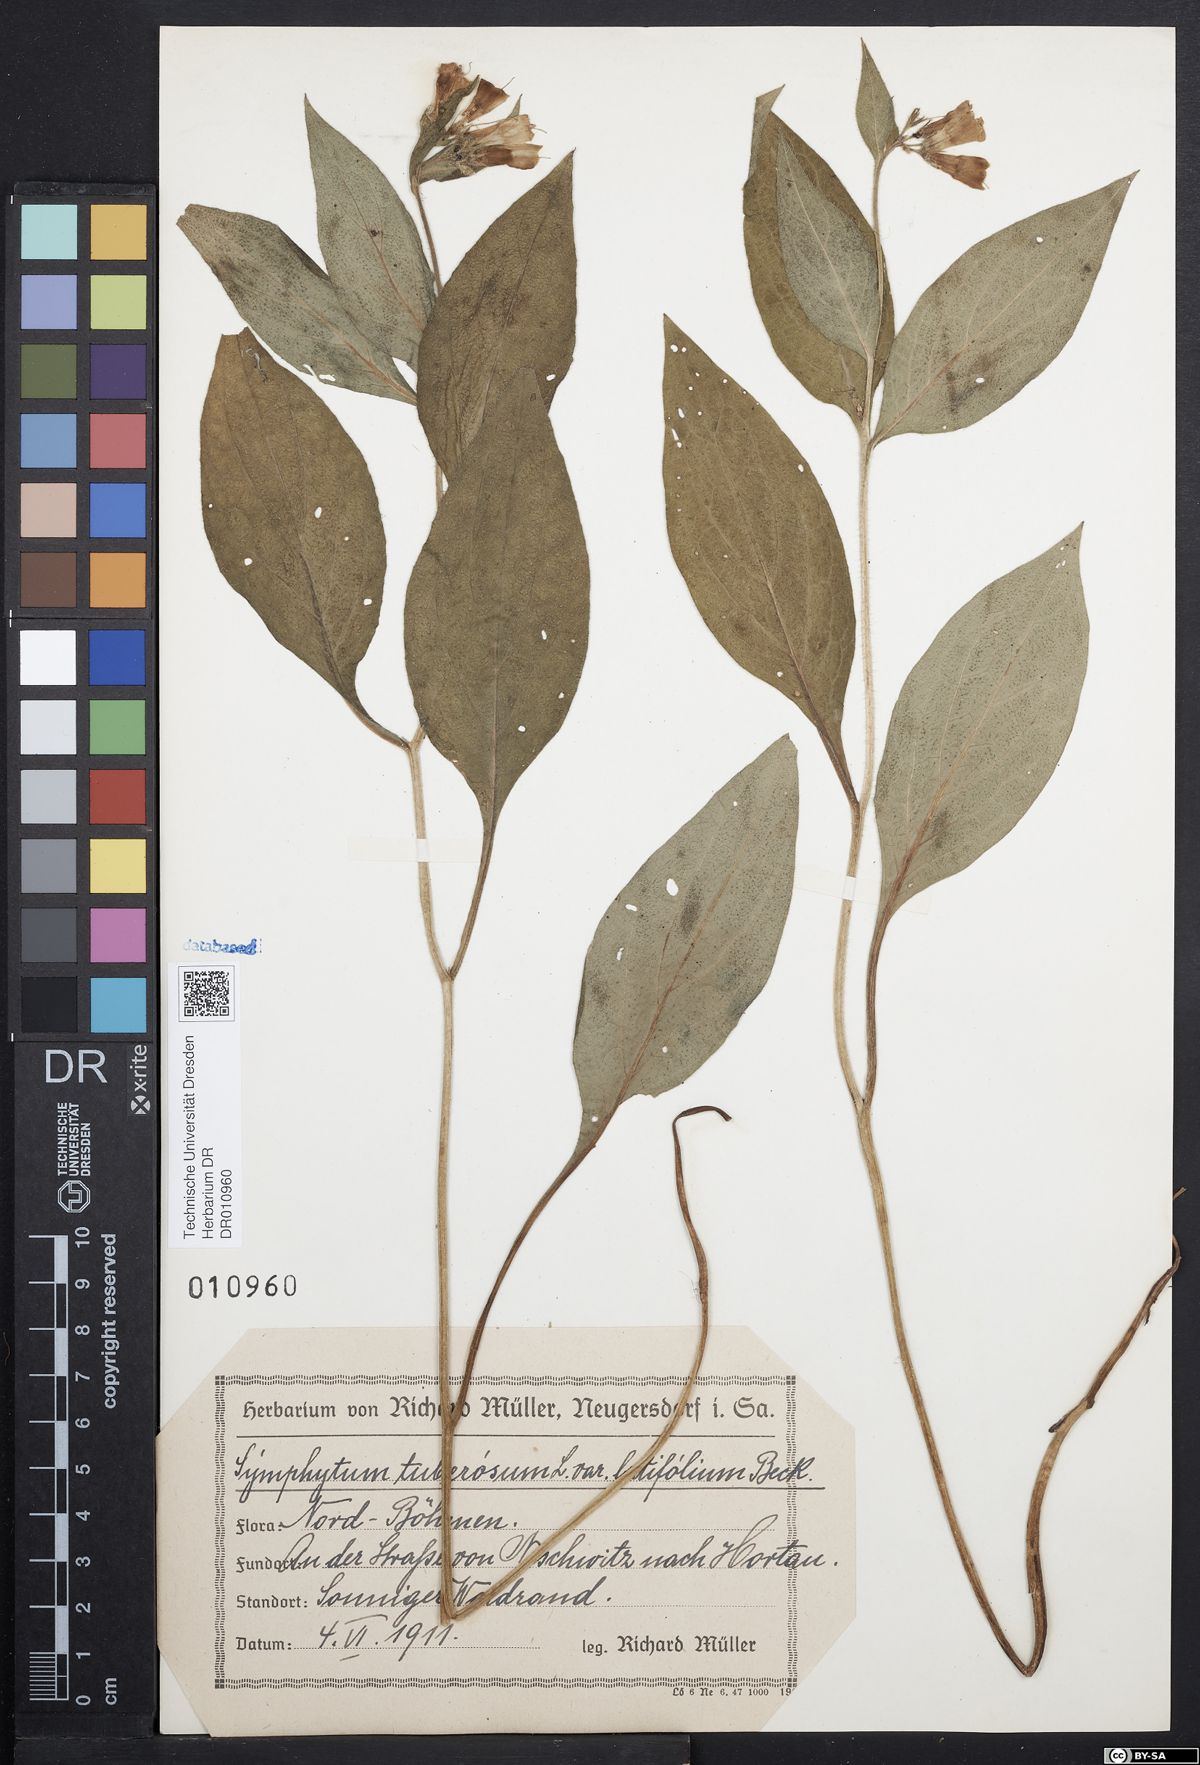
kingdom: Plantae
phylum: Tracheophyta
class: Magnoliopsida
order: Boraginales
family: Boraginaceae
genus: Symphytum
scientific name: Symphytum tuberosum
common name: Tuberous comfrey
